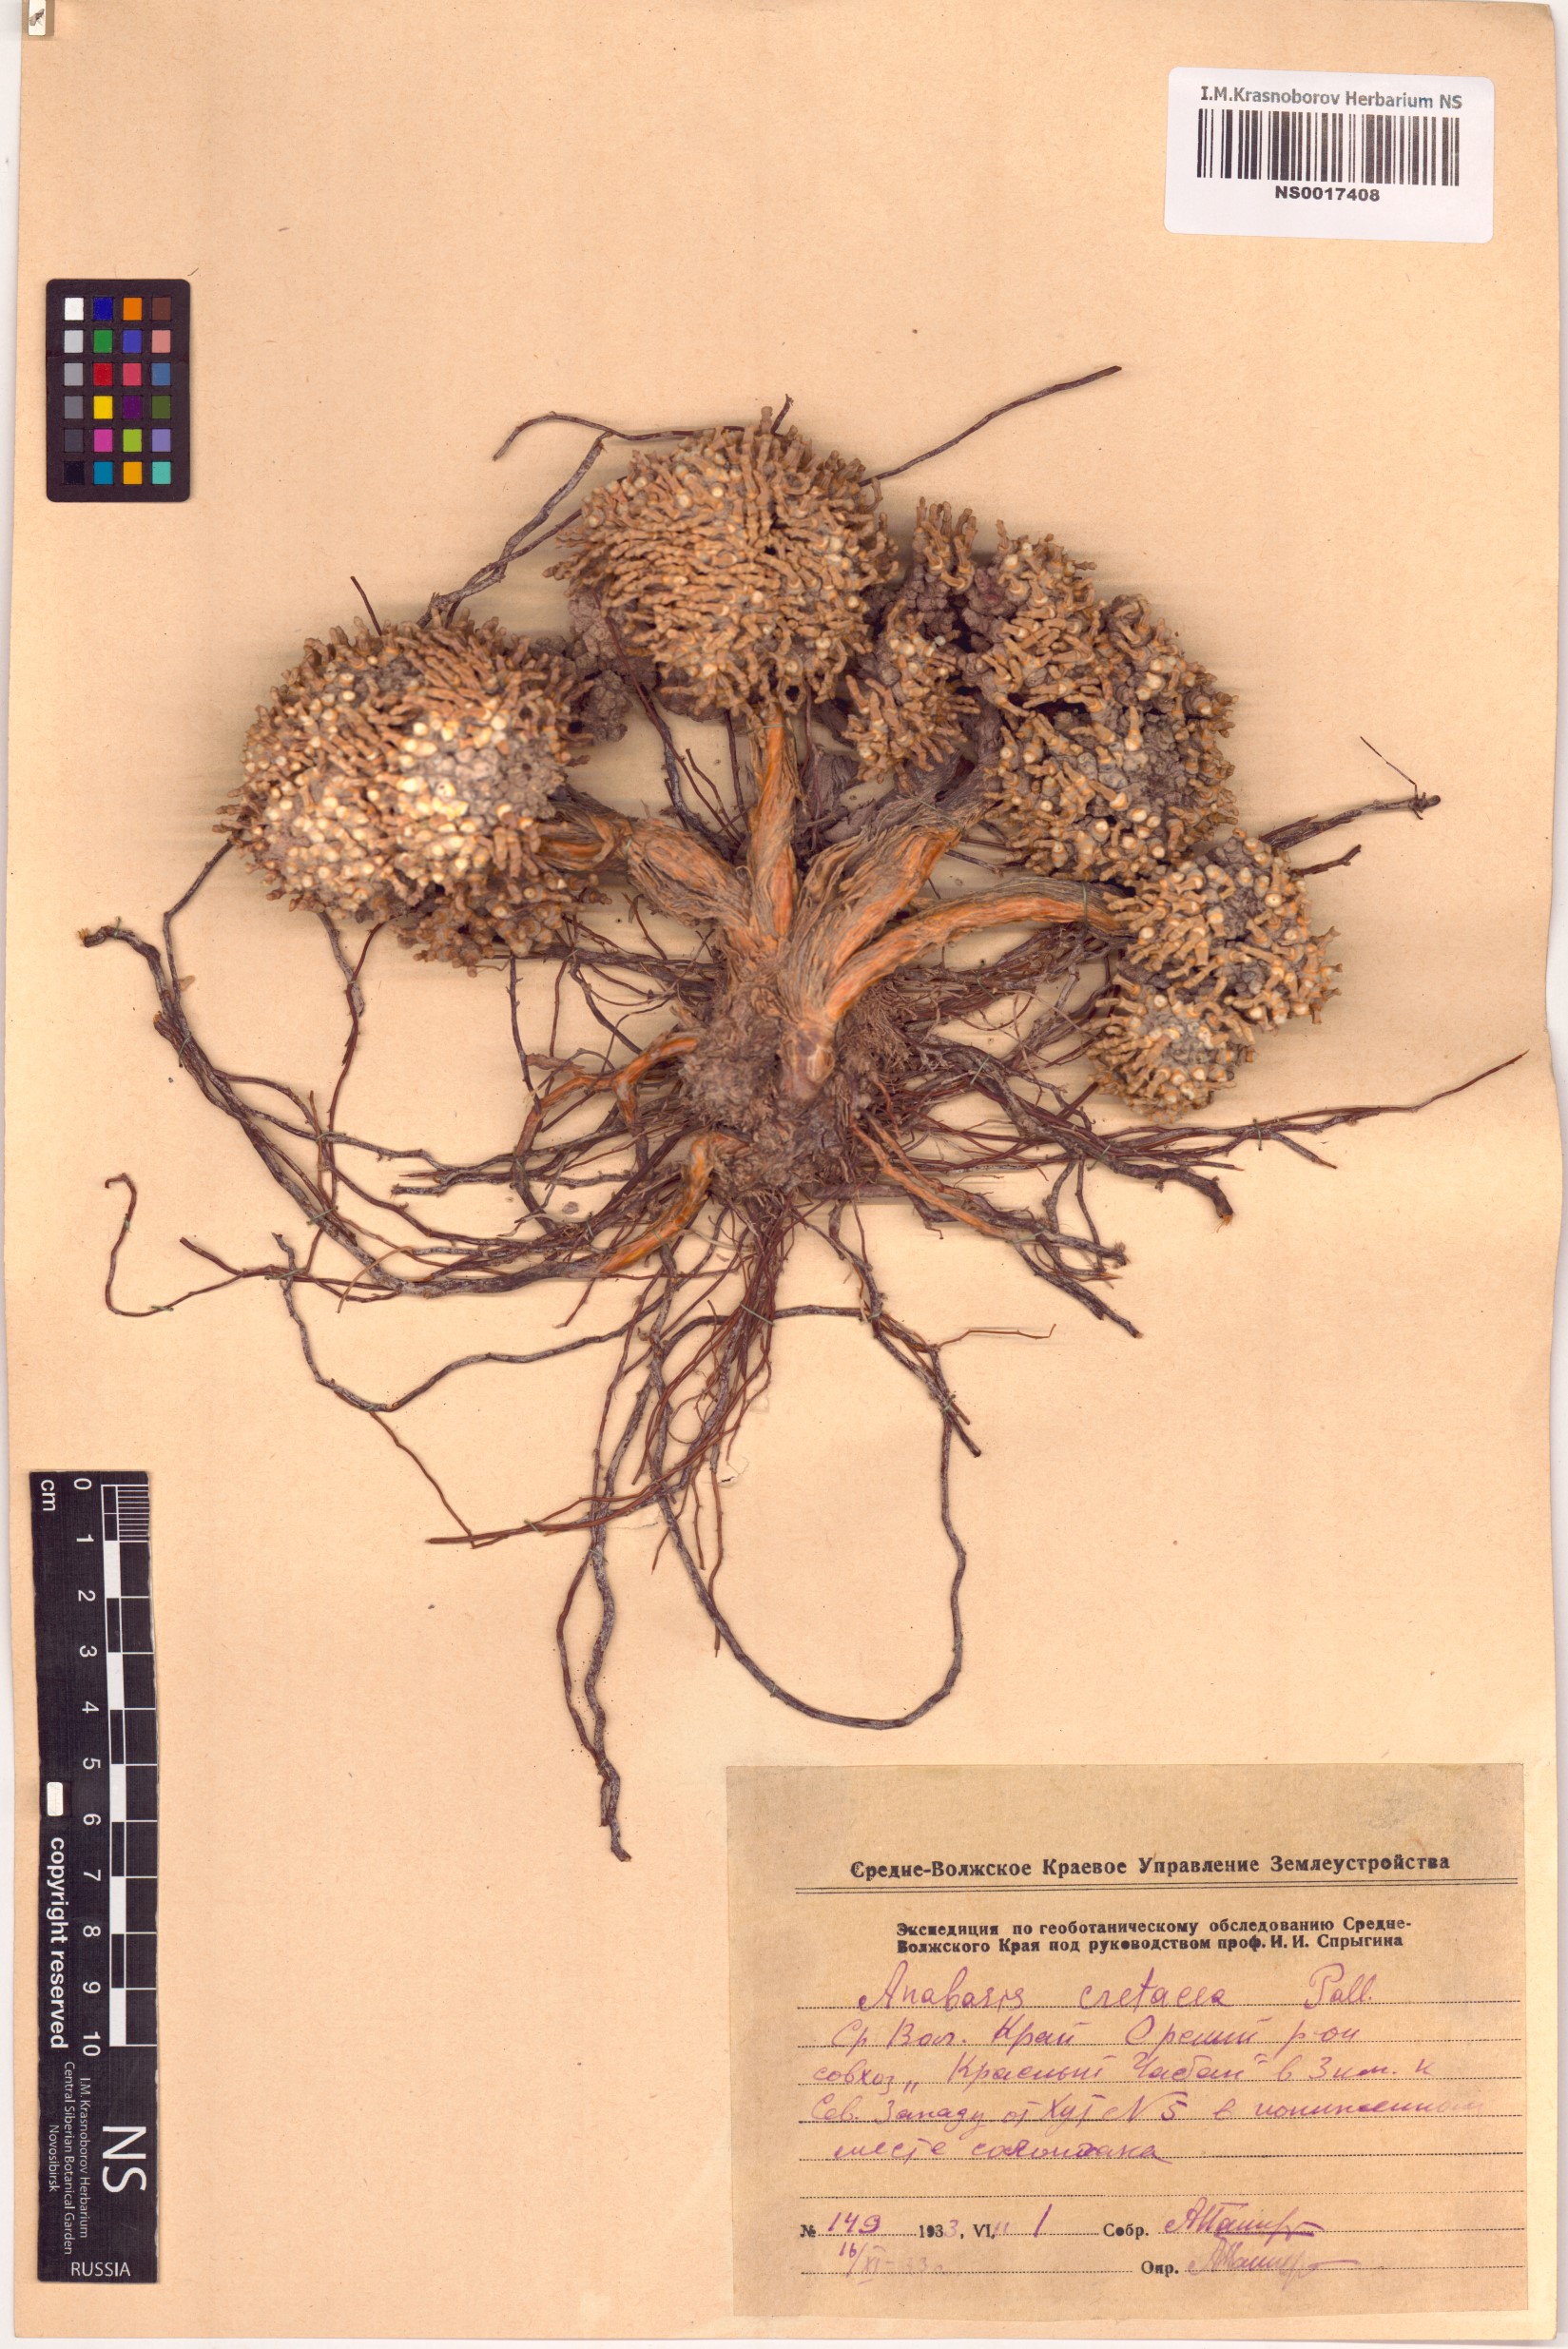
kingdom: Plantae
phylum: Tracheophyta
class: Magnoliopsida
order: Caryophyllales
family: Amaranthaceae
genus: Anabasis
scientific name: Anabasis cretacea
